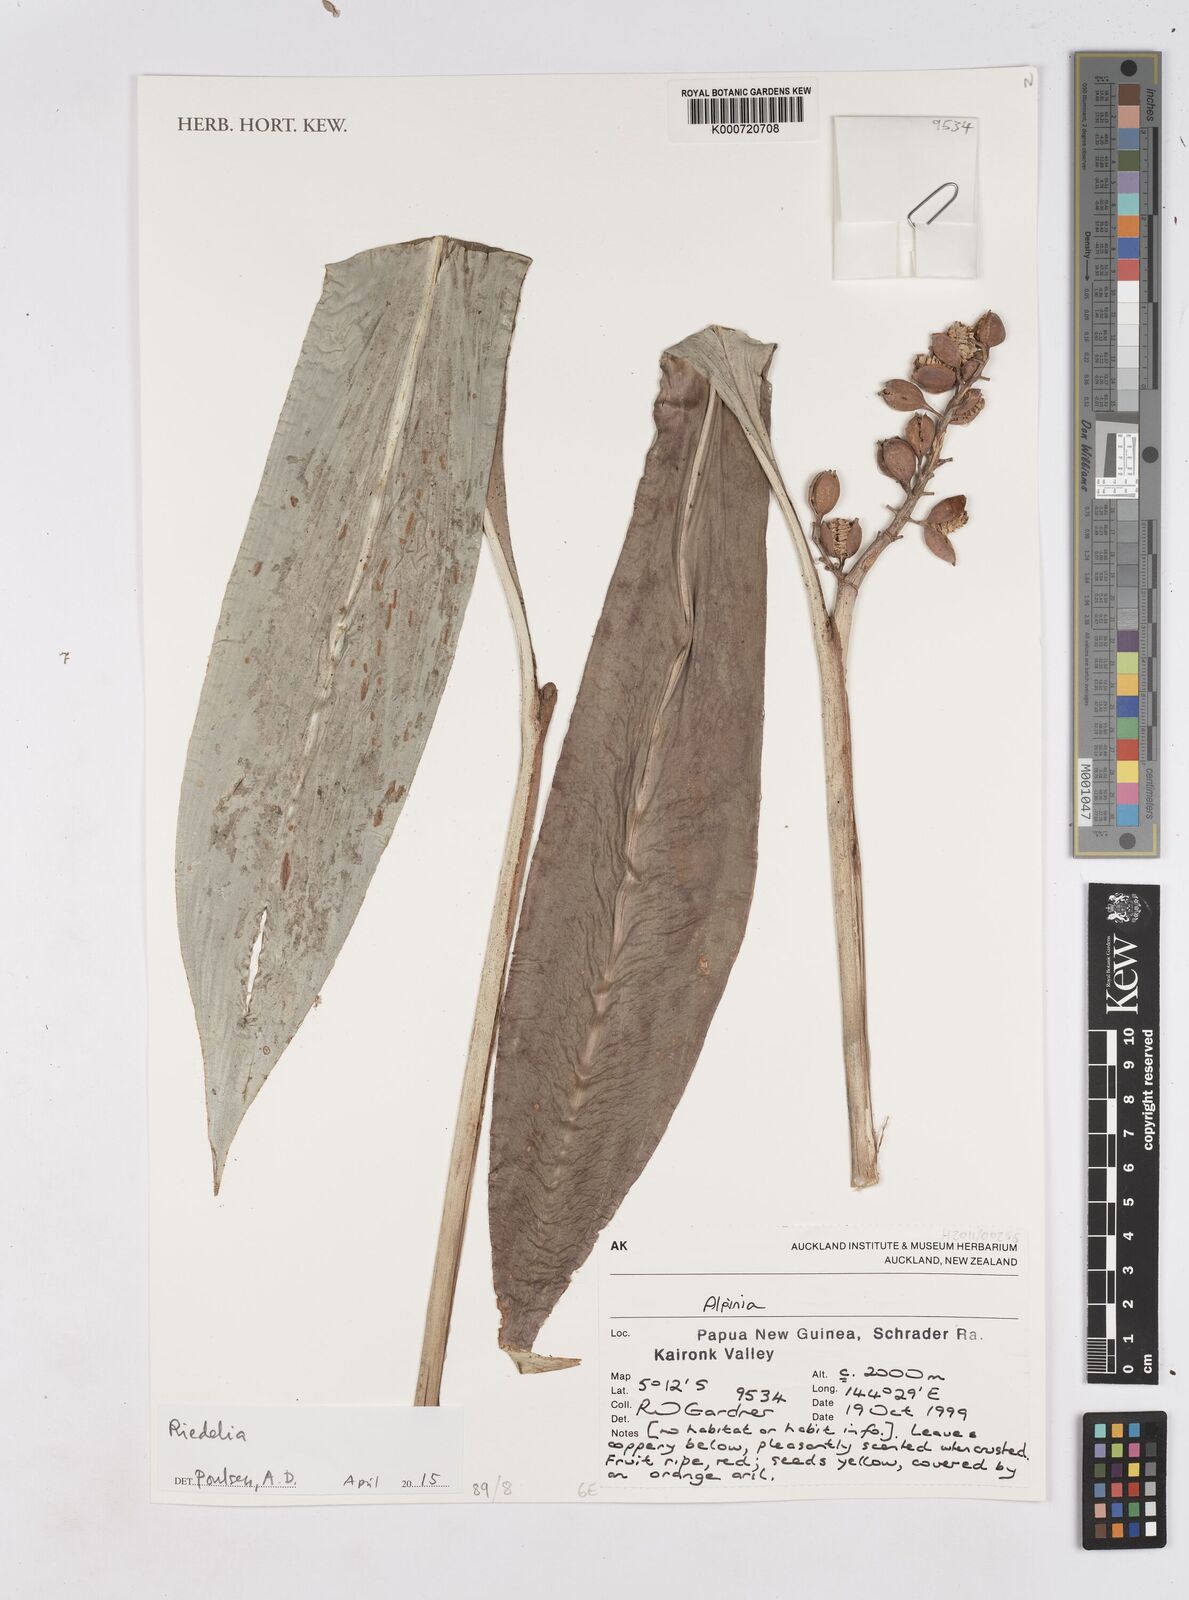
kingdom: Plantae
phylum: Tracheophyta
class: Liliopsida
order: Zingiberales
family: Zingiberaceae
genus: Riedelia
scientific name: Riedelia
